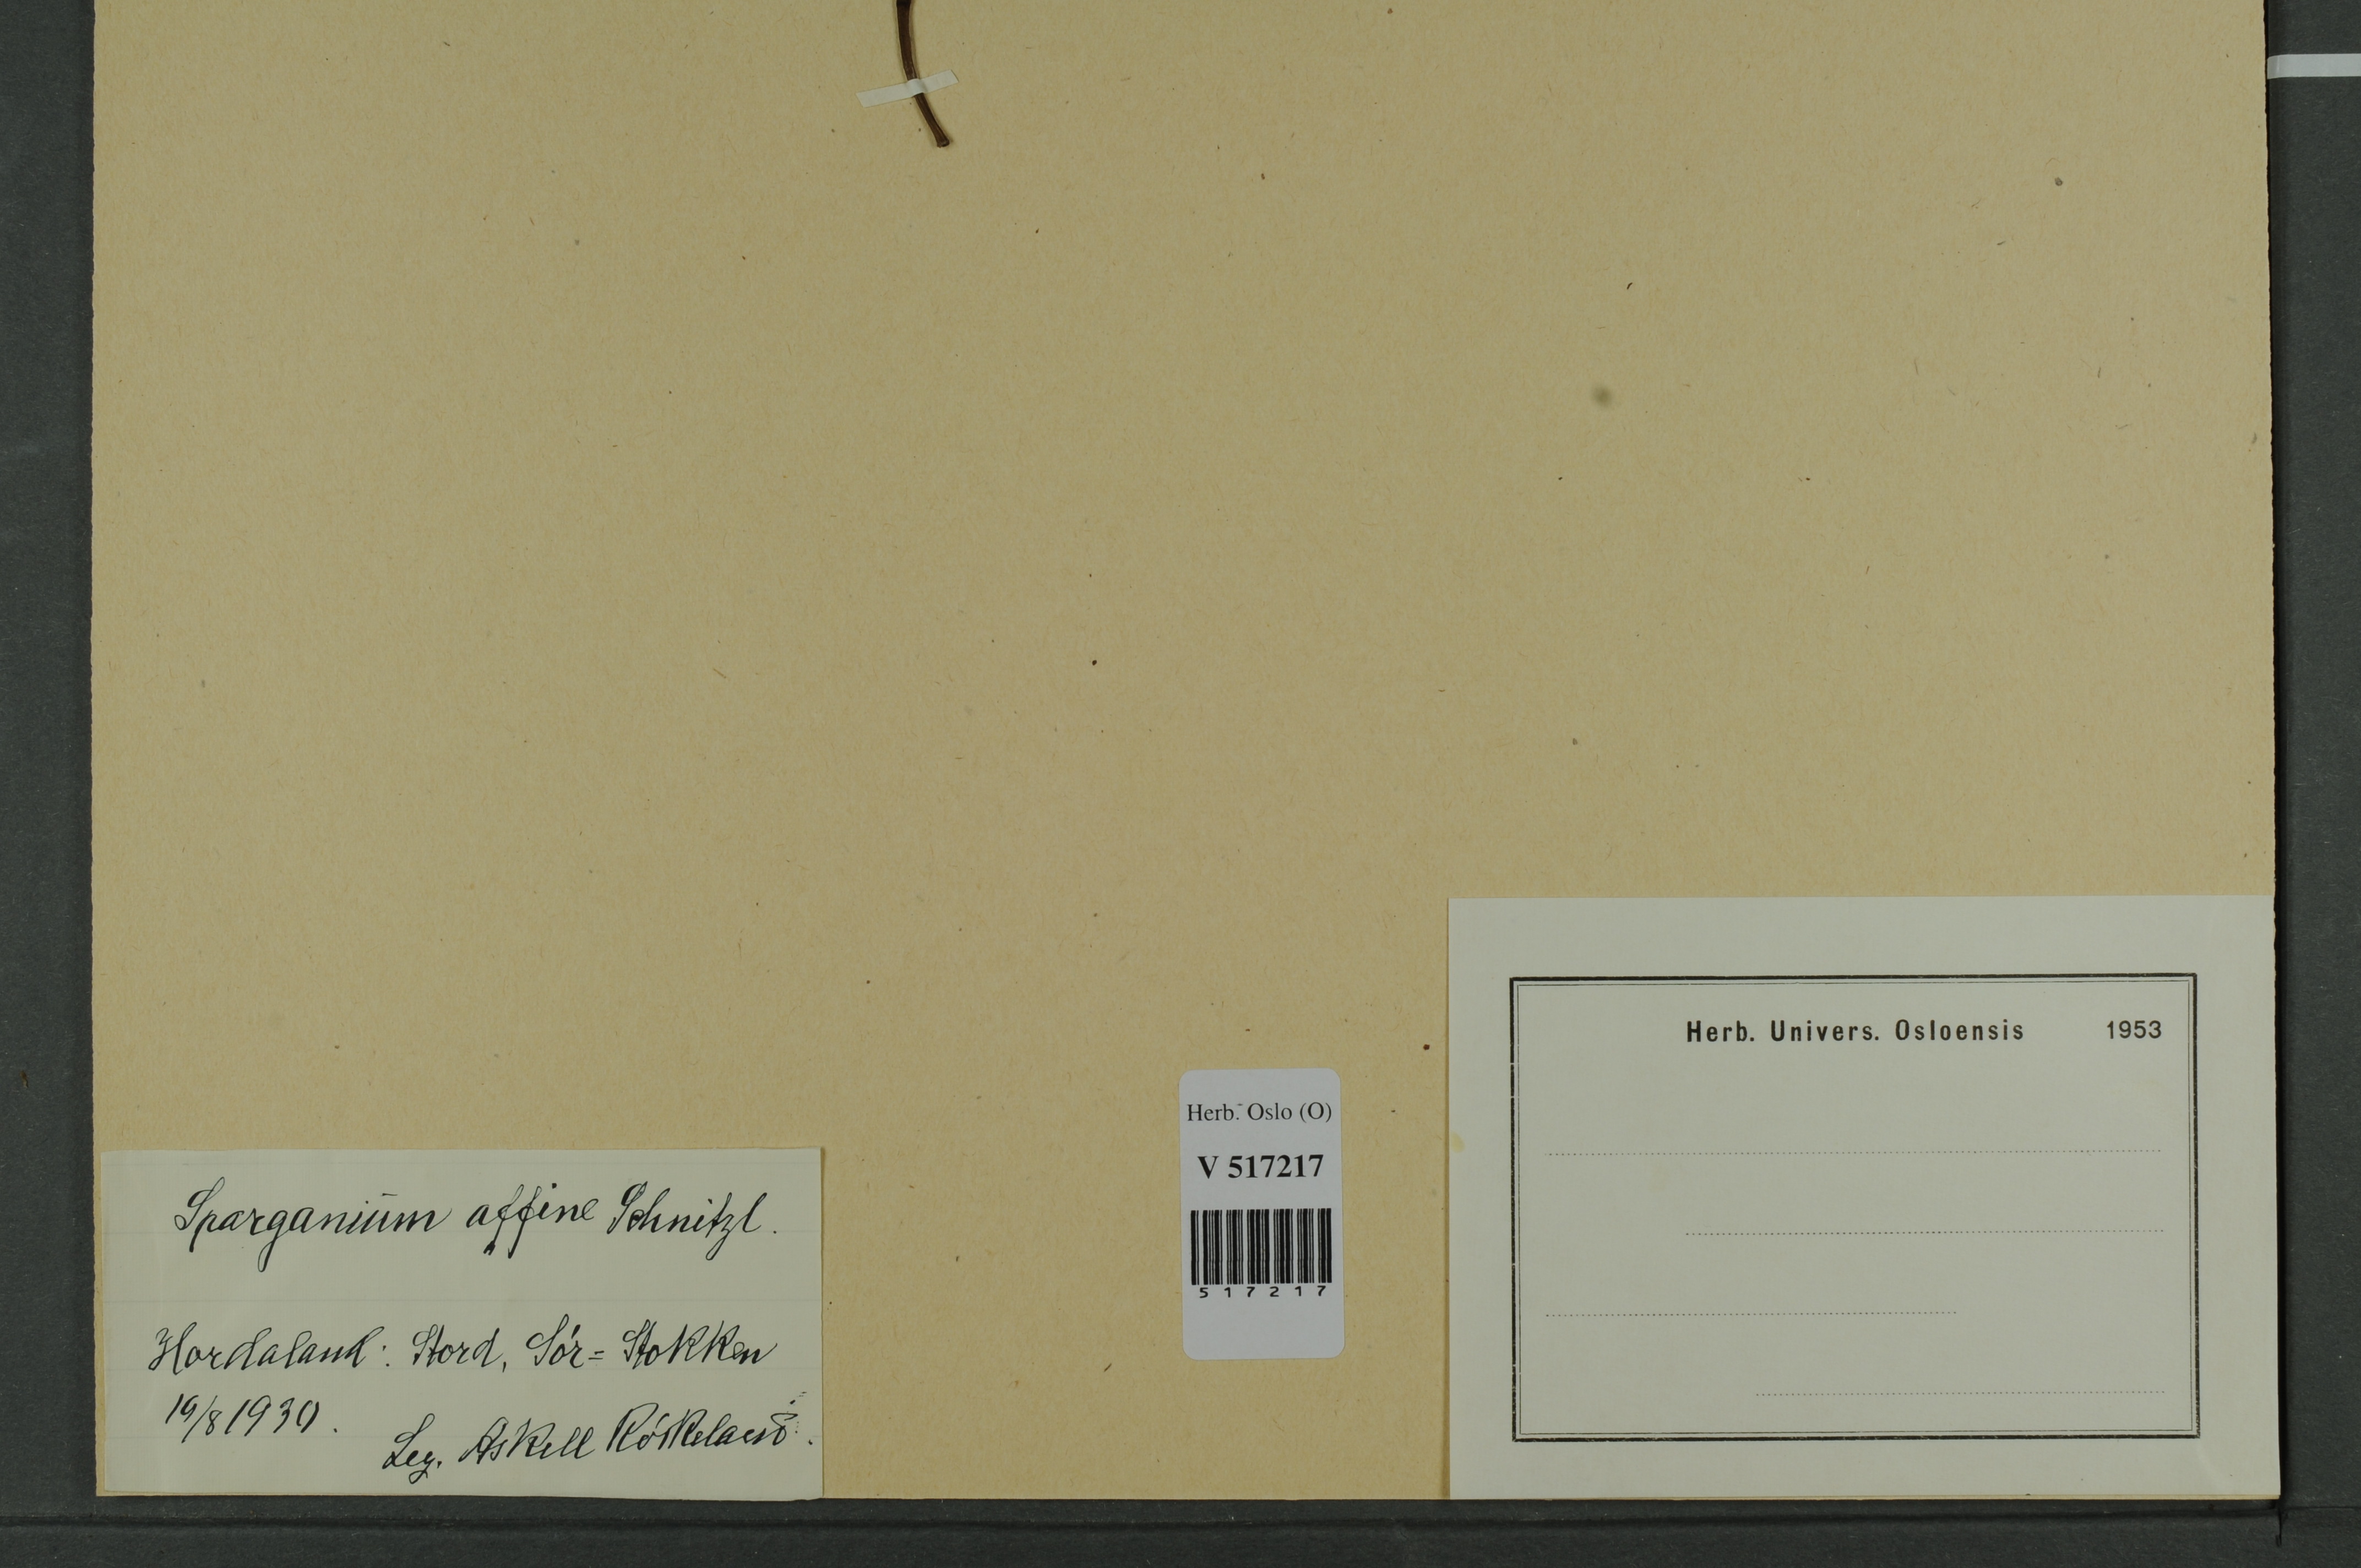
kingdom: Plantae
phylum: Tracheophyta
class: Liliopsida
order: Poales
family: Typhaceae
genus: Sparganium
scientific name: Sparganium angustifolium
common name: Floating bur-reed
